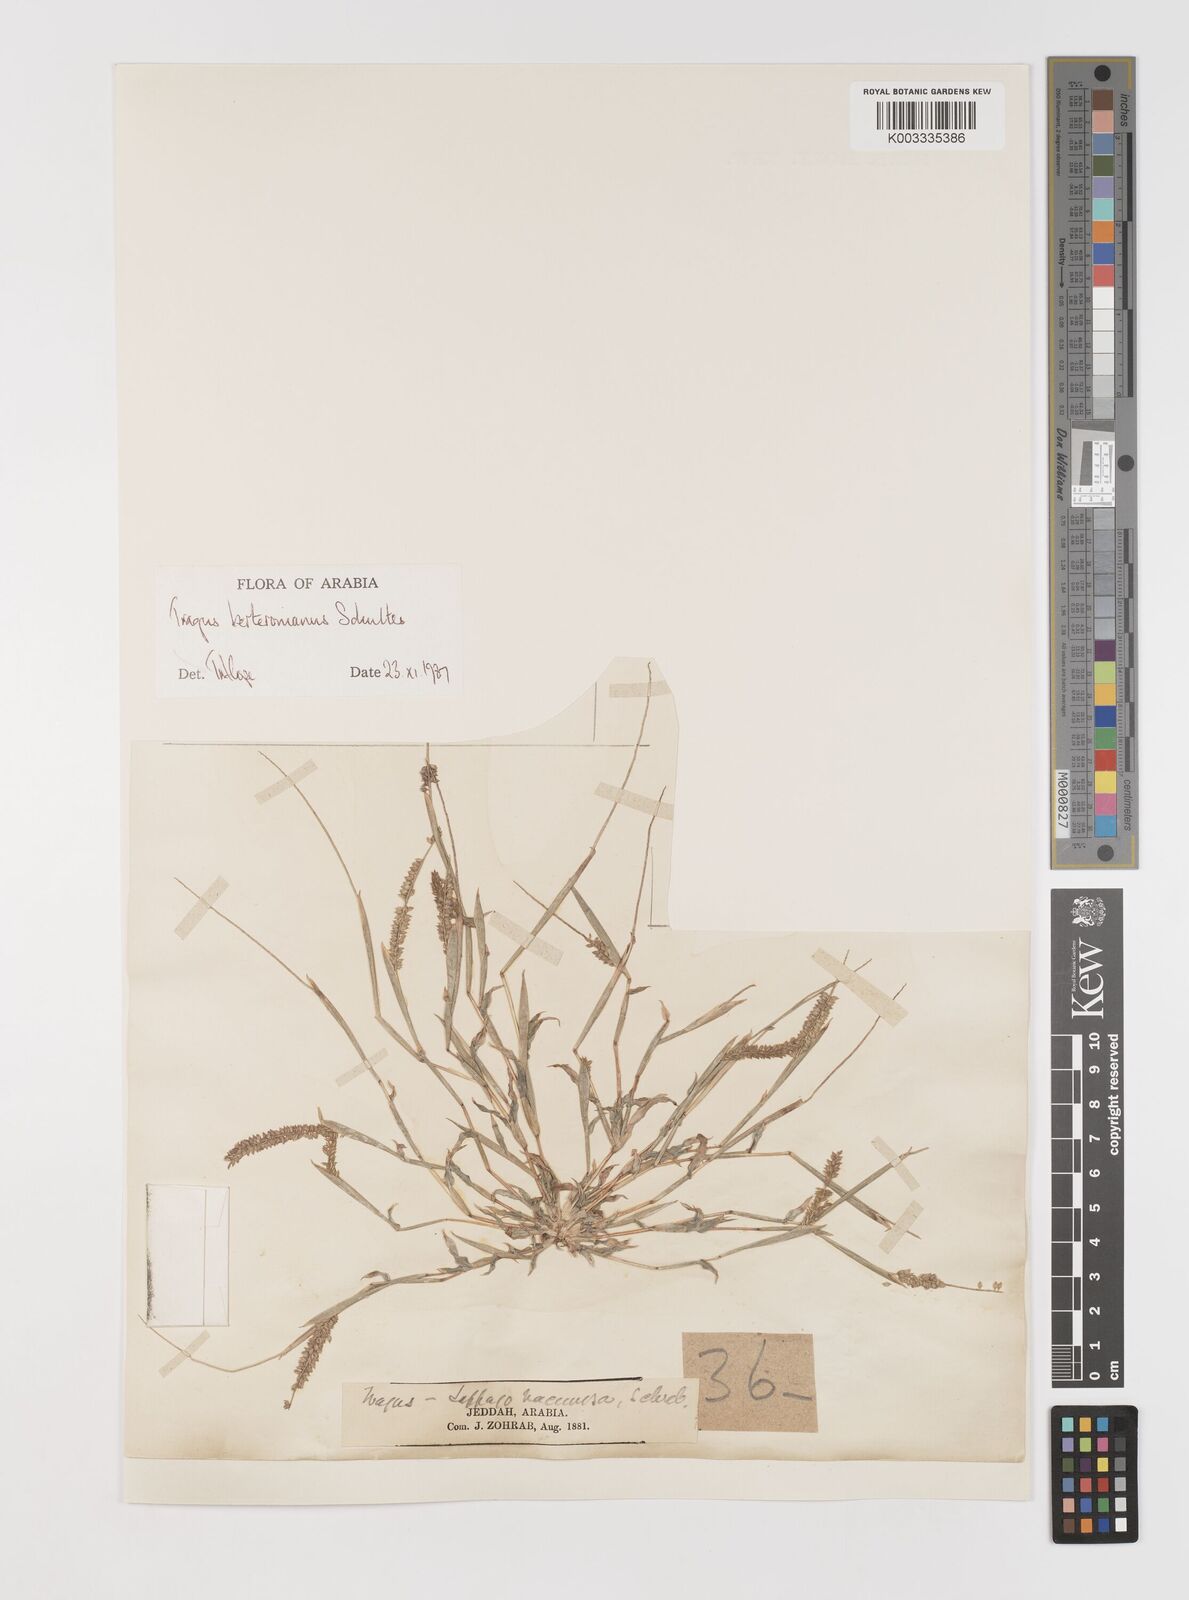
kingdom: Plantae
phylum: Tracheophyta
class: Liliopsida
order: Poales
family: Poaceae
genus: Tragus
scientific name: Tragus berteronianus
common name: African bur-grass
